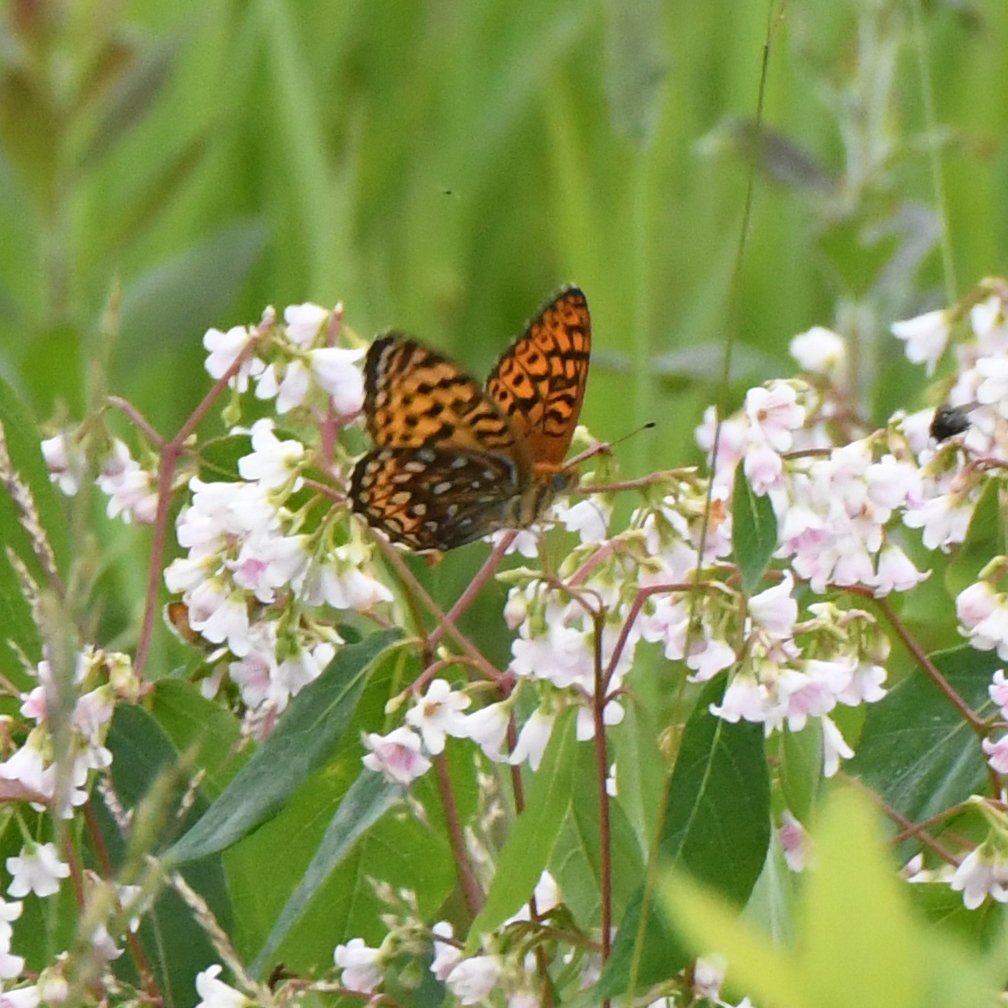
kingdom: Animalia
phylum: Arthropoda
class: Insecta
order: Lepidoptera
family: Nymphalidae
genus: Speyeria
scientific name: Speyeria atlantis
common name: Atlantis Fritillary
